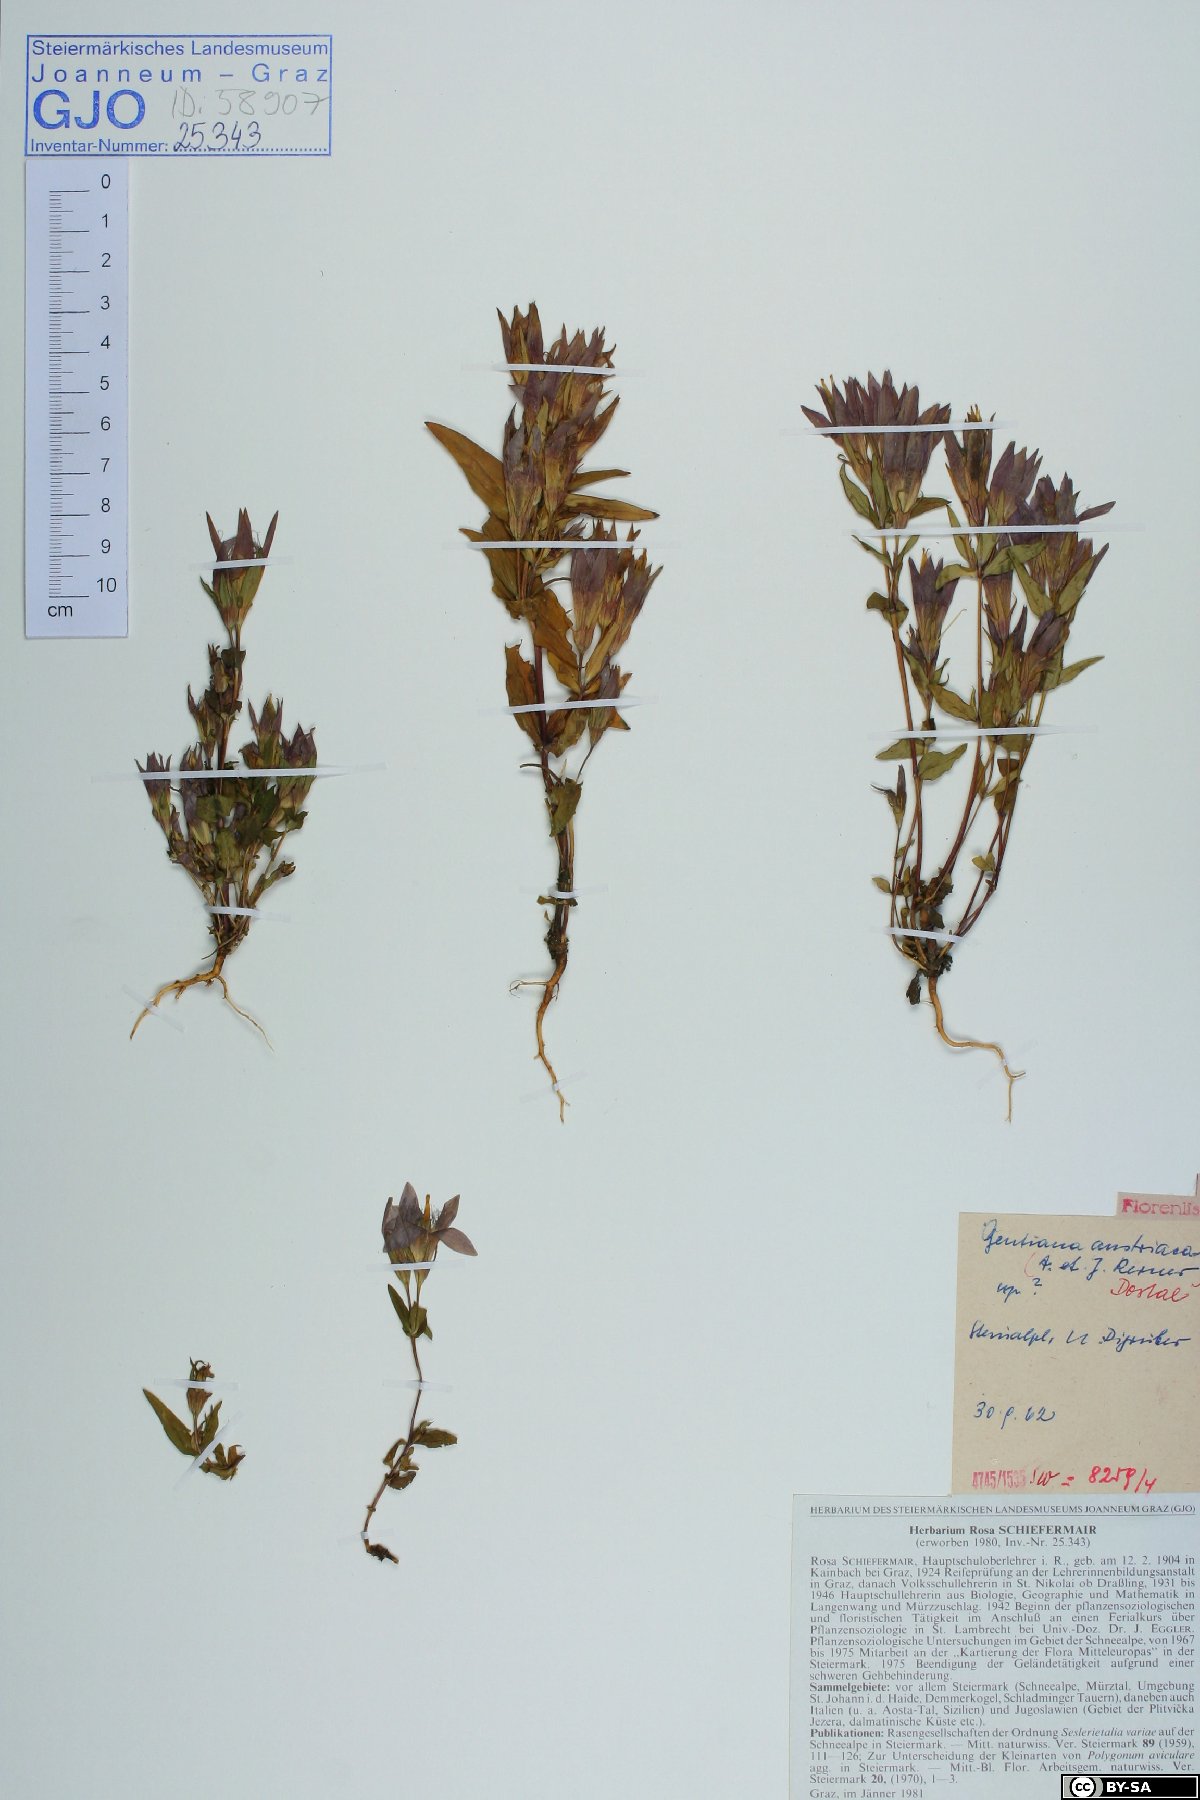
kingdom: Plantae
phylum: Tracheophyta
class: Magnoliopsida
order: Gentianales
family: Gentianaceae
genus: Gentianella
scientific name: Gentianella austriaca
